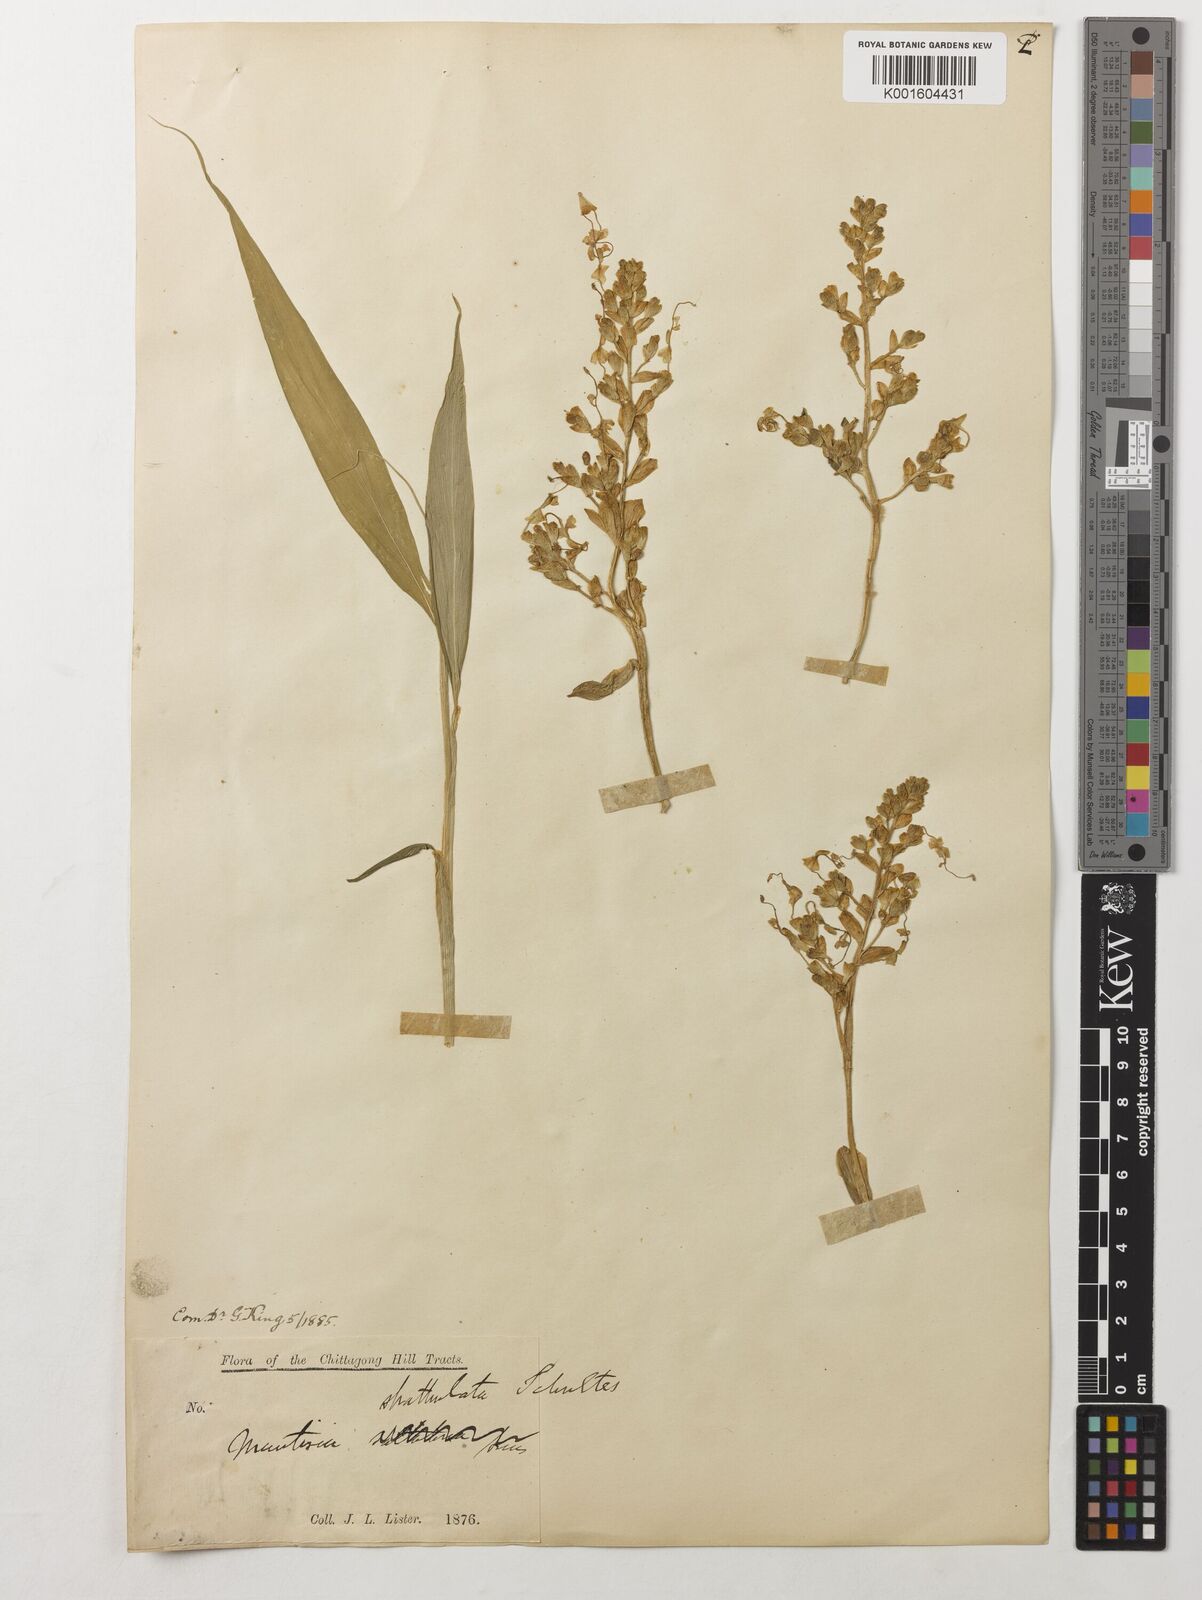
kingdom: Plantae
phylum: Tracheophyta
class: Liliopsida
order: Zingiberales
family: Zingiberaceae
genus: Globba
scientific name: Globba spathulata
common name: Dancing girl flower
